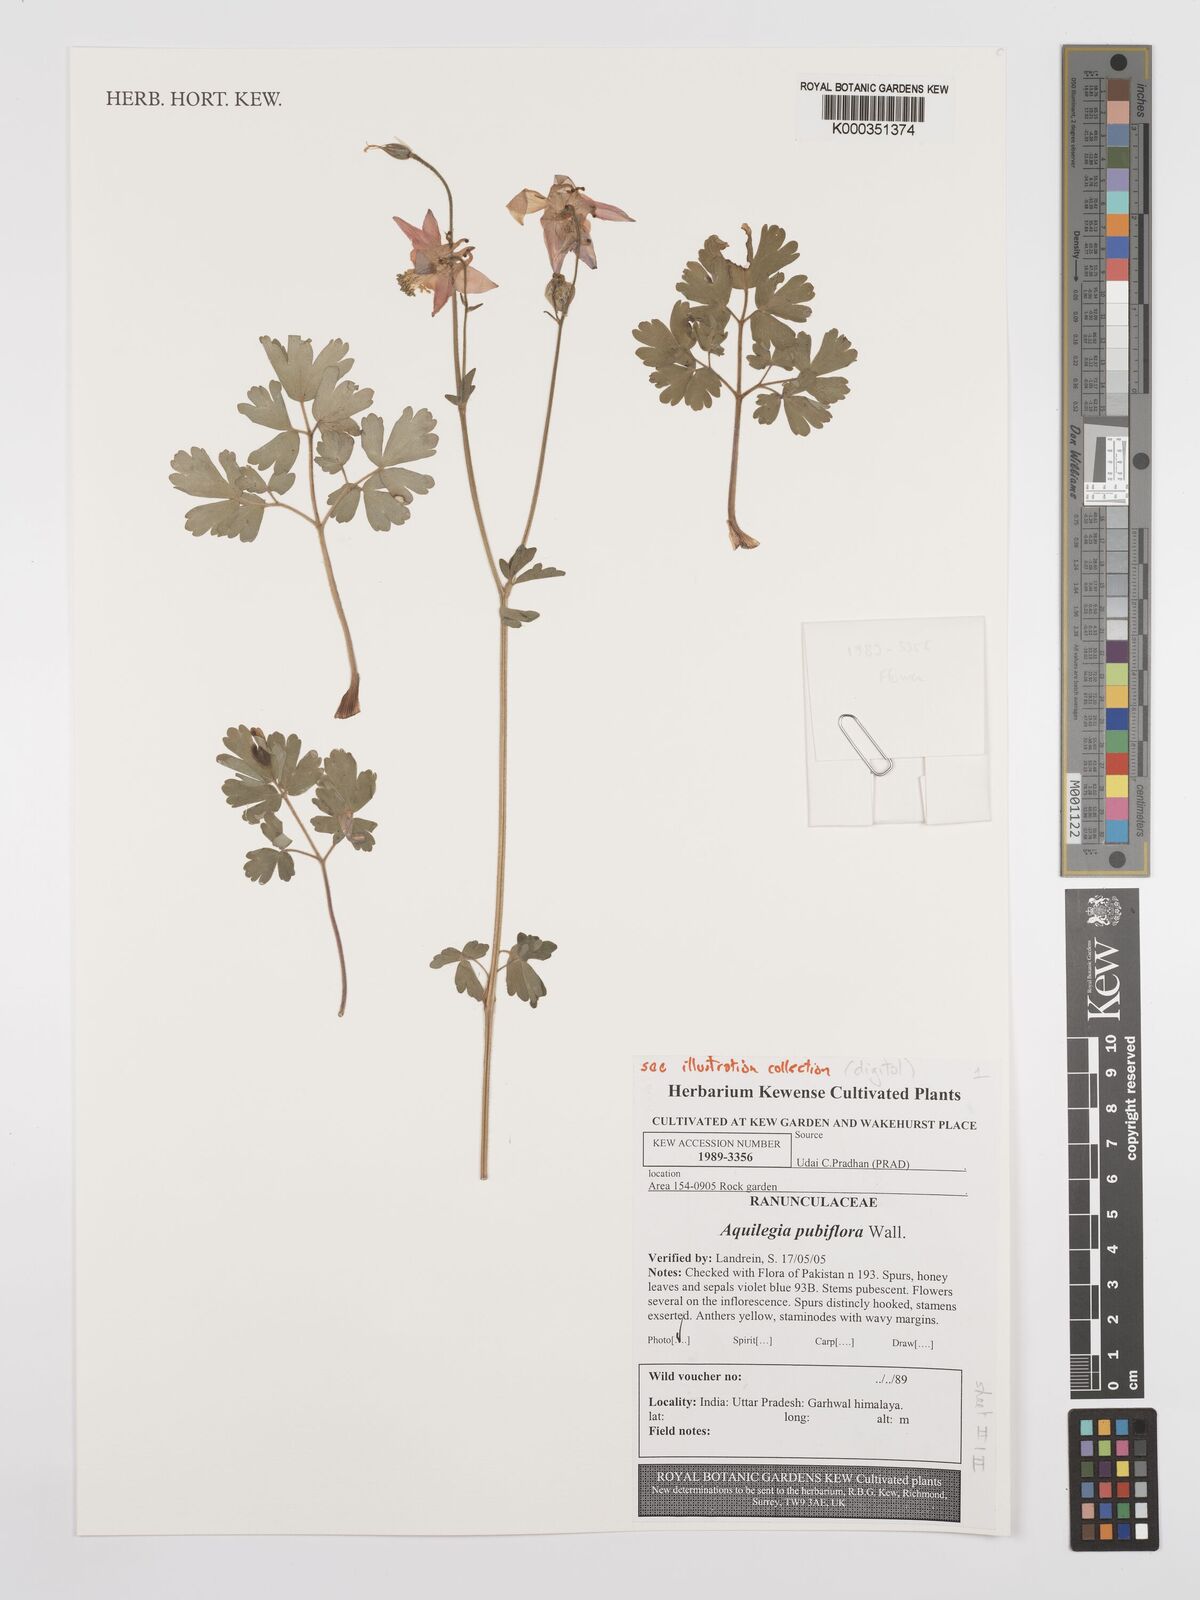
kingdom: Plantae
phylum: Tracheophyta
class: Magnoliopsida
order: Ranunculales
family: Ranunculaceae
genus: Aquilegia
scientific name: Aquilegia
